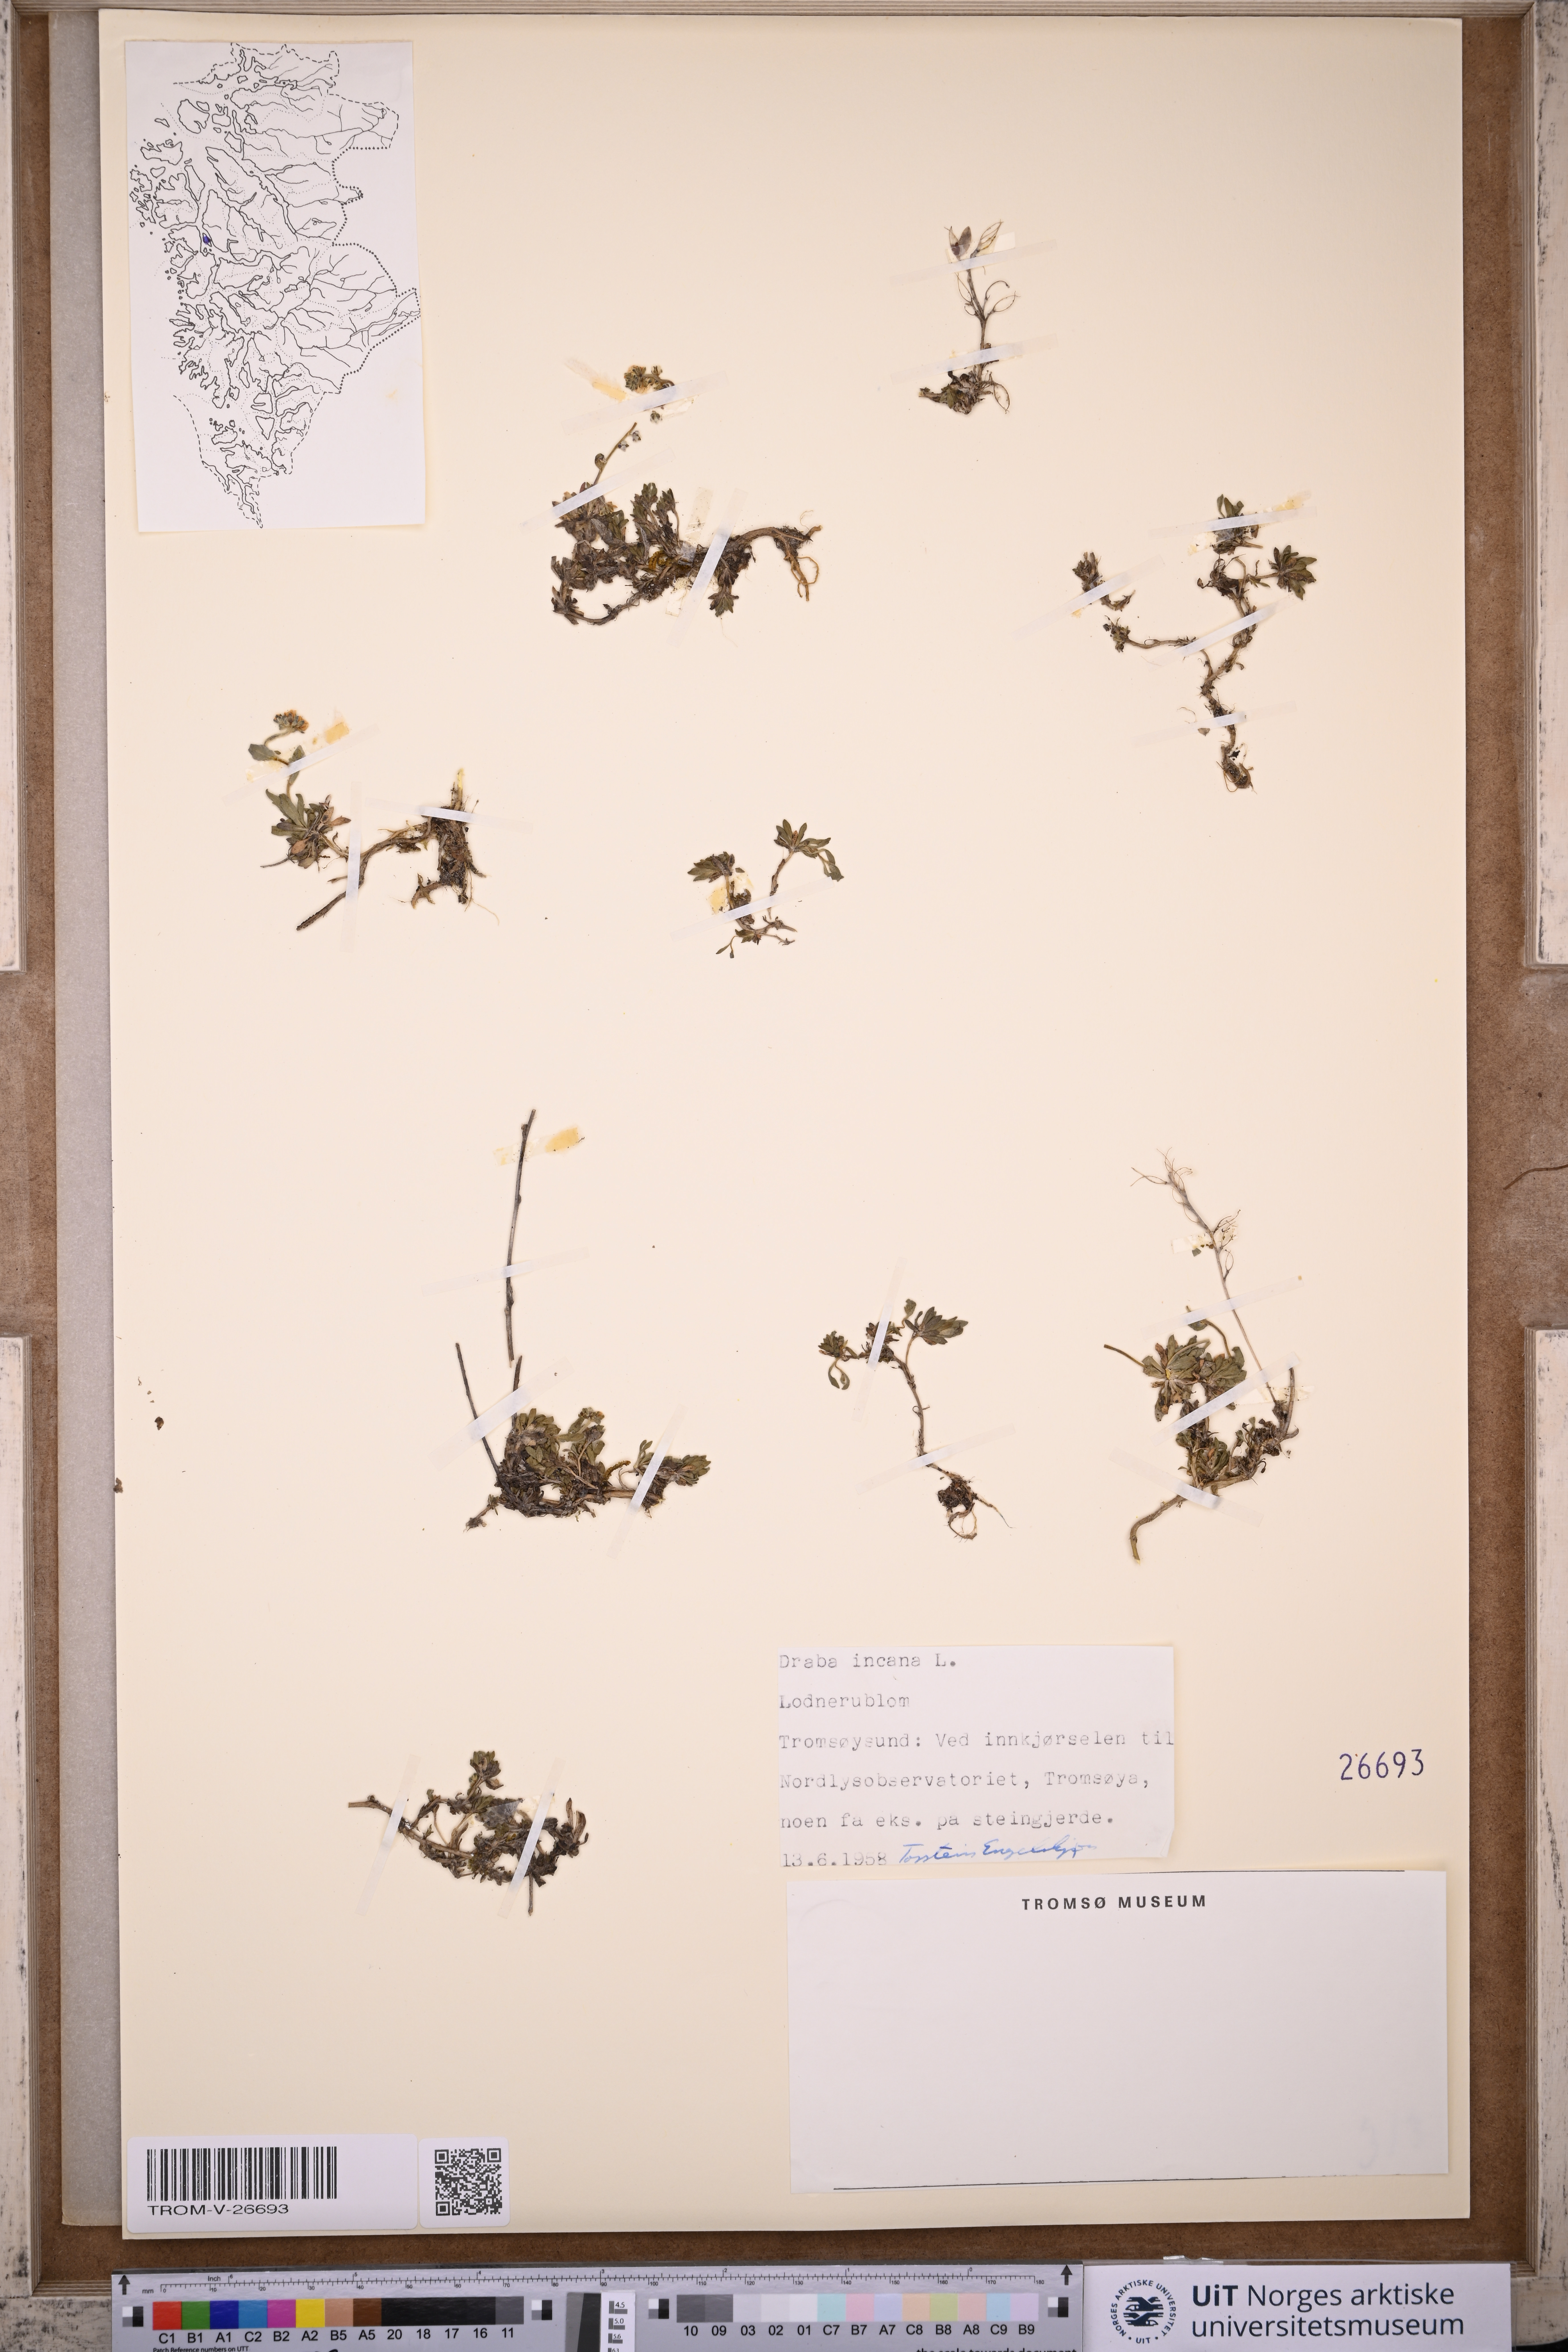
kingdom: Plantae
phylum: Tracheophyta
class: Magnoliopsida
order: Brassicales
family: Brassicaceae
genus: Draba
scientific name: Draba incana
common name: Hoary whitlow-grass
